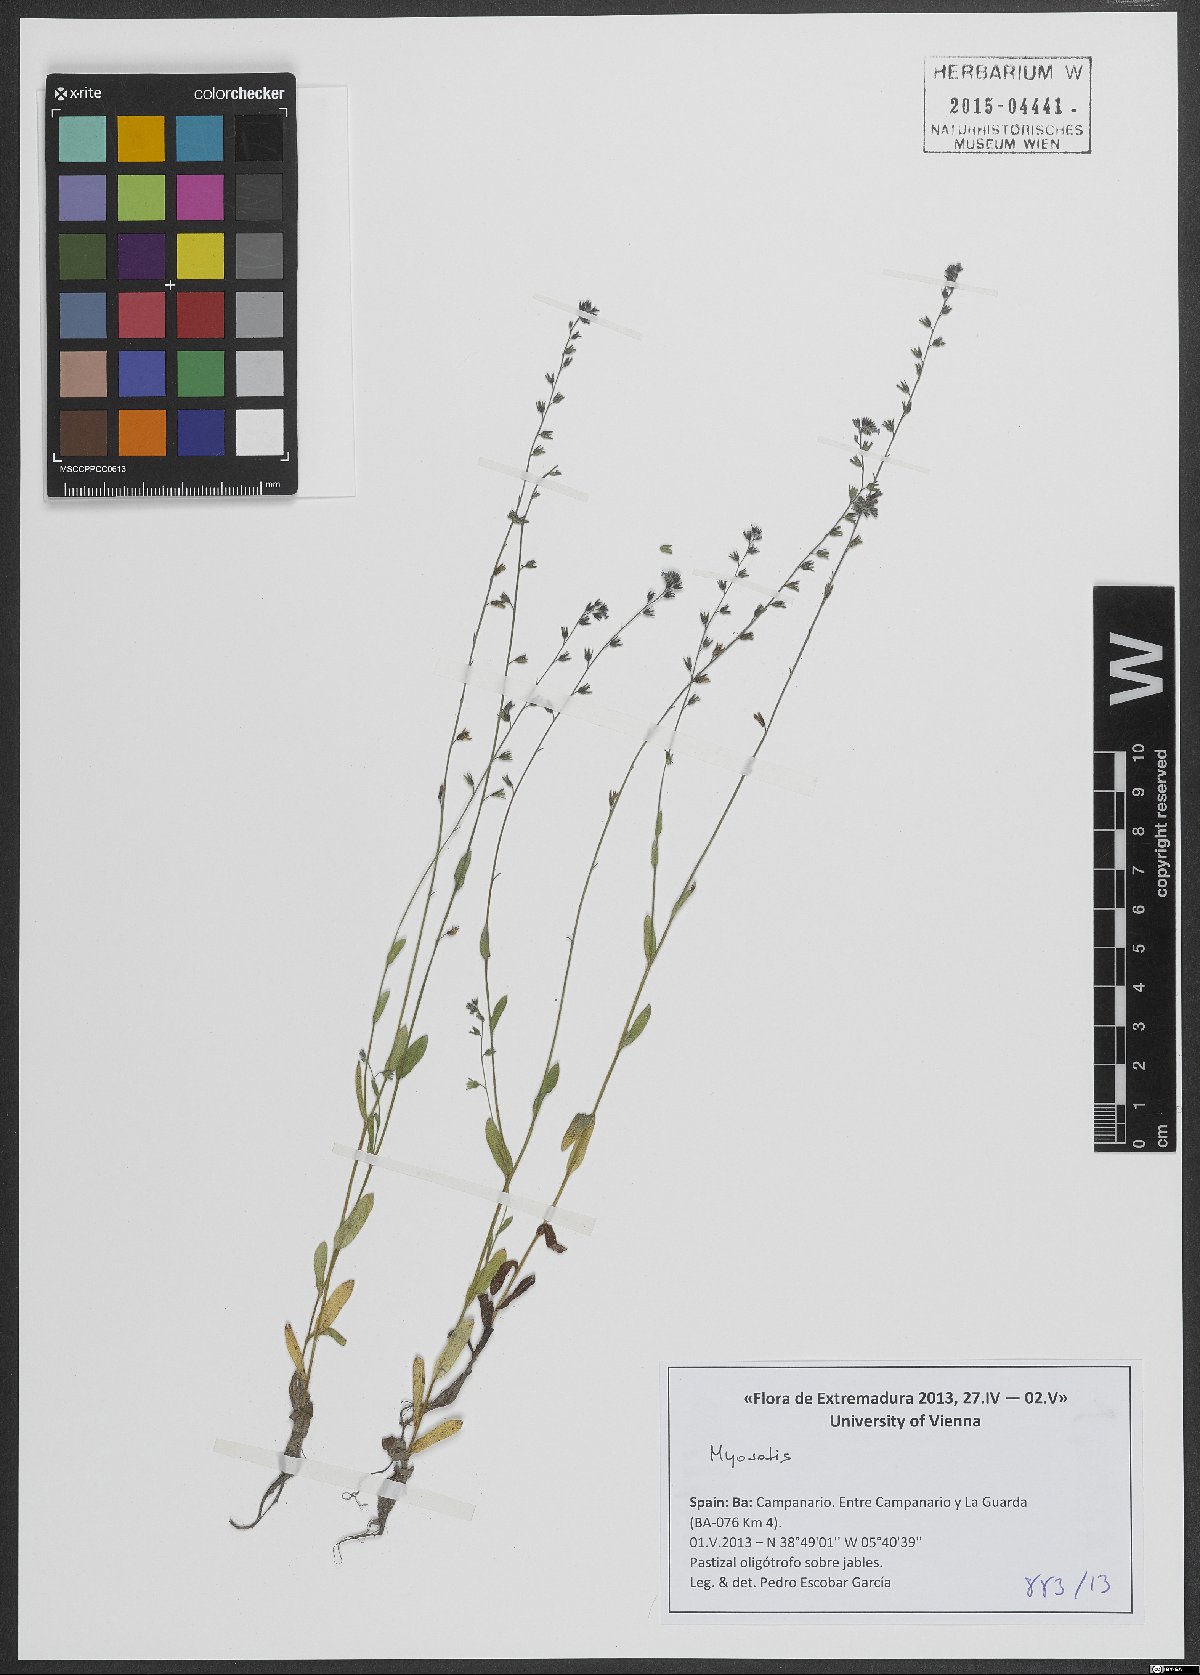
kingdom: Plantae
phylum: Tracheophyta
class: Magnoliopsida
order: Boraginales
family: Boraginaceae
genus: Myosotis
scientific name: Myosotis
